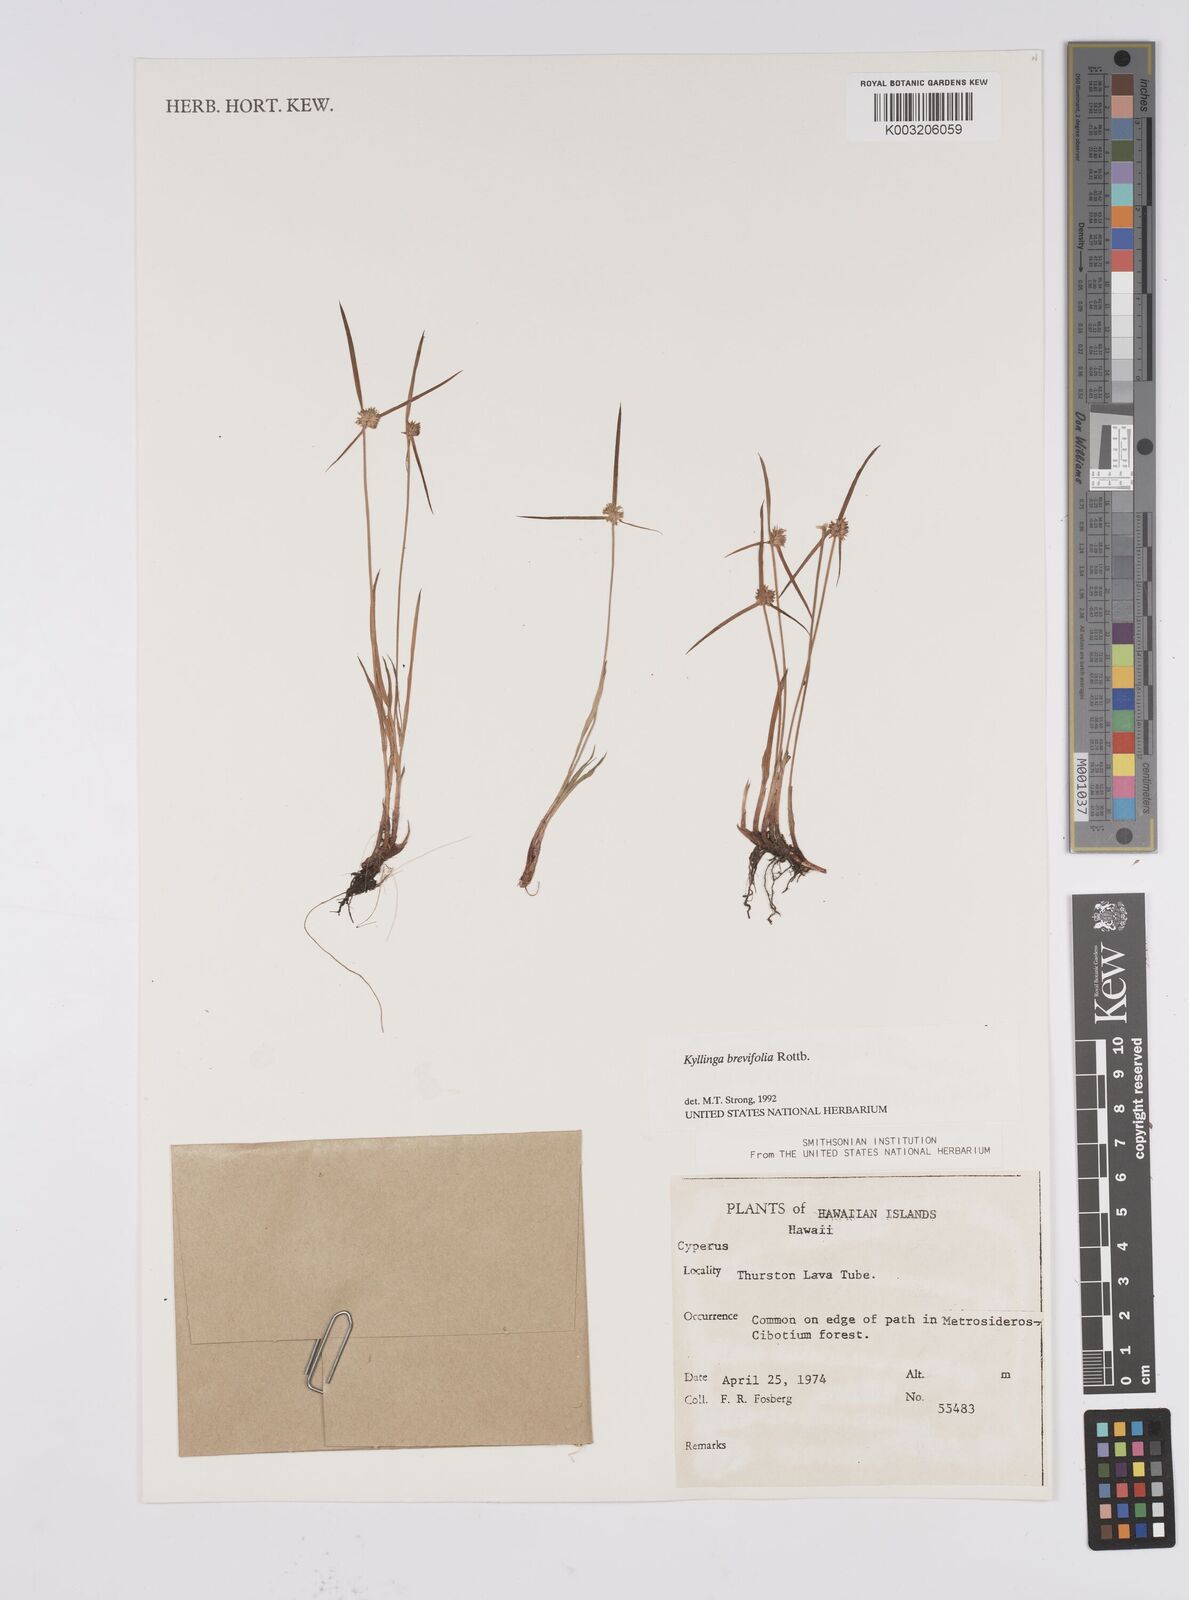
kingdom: Plantae
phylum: Tracheophyta
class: Liliopsida
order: Poales
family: Cyperaceae
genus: Cyperus
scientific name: Cyperus brevifolius
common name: Globe kyllinga
